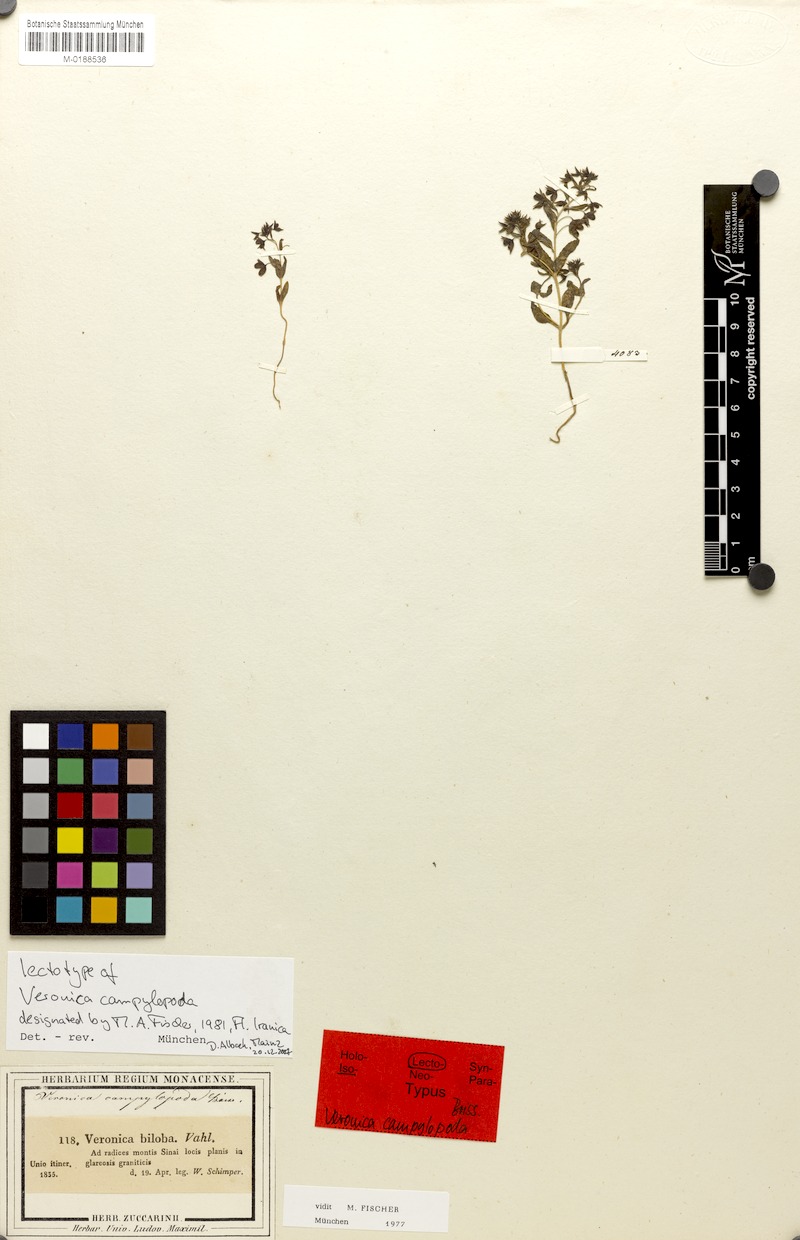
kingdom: Plantae
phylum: Tracheophyta
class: Magnoliopsida
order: Lamiales
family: Plantaginaceae
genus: Veronica
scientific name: Veronica campylopoda
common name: Bent-foot speedwell
